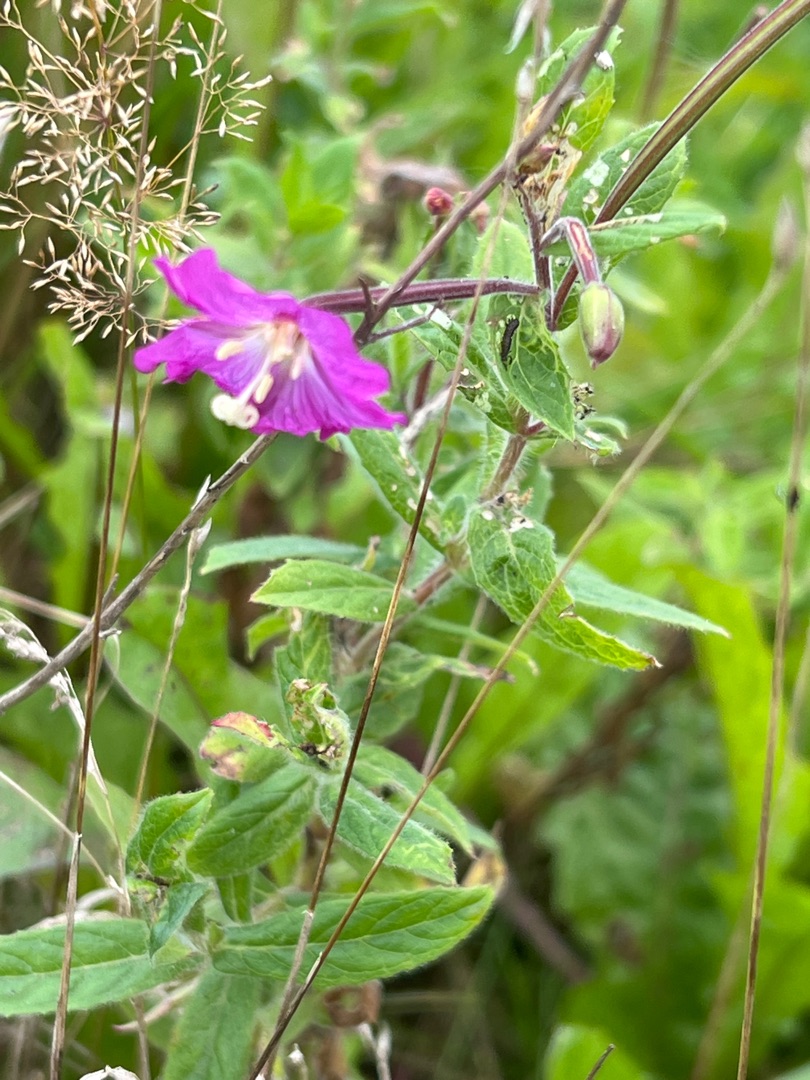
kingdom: Plantae
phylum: Tracheophyta
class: Magnoliopsida
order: Myrtales
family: Onagraceae
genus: Epilobium
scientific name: Epilobium hirsutum
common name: Lådden dueurt
